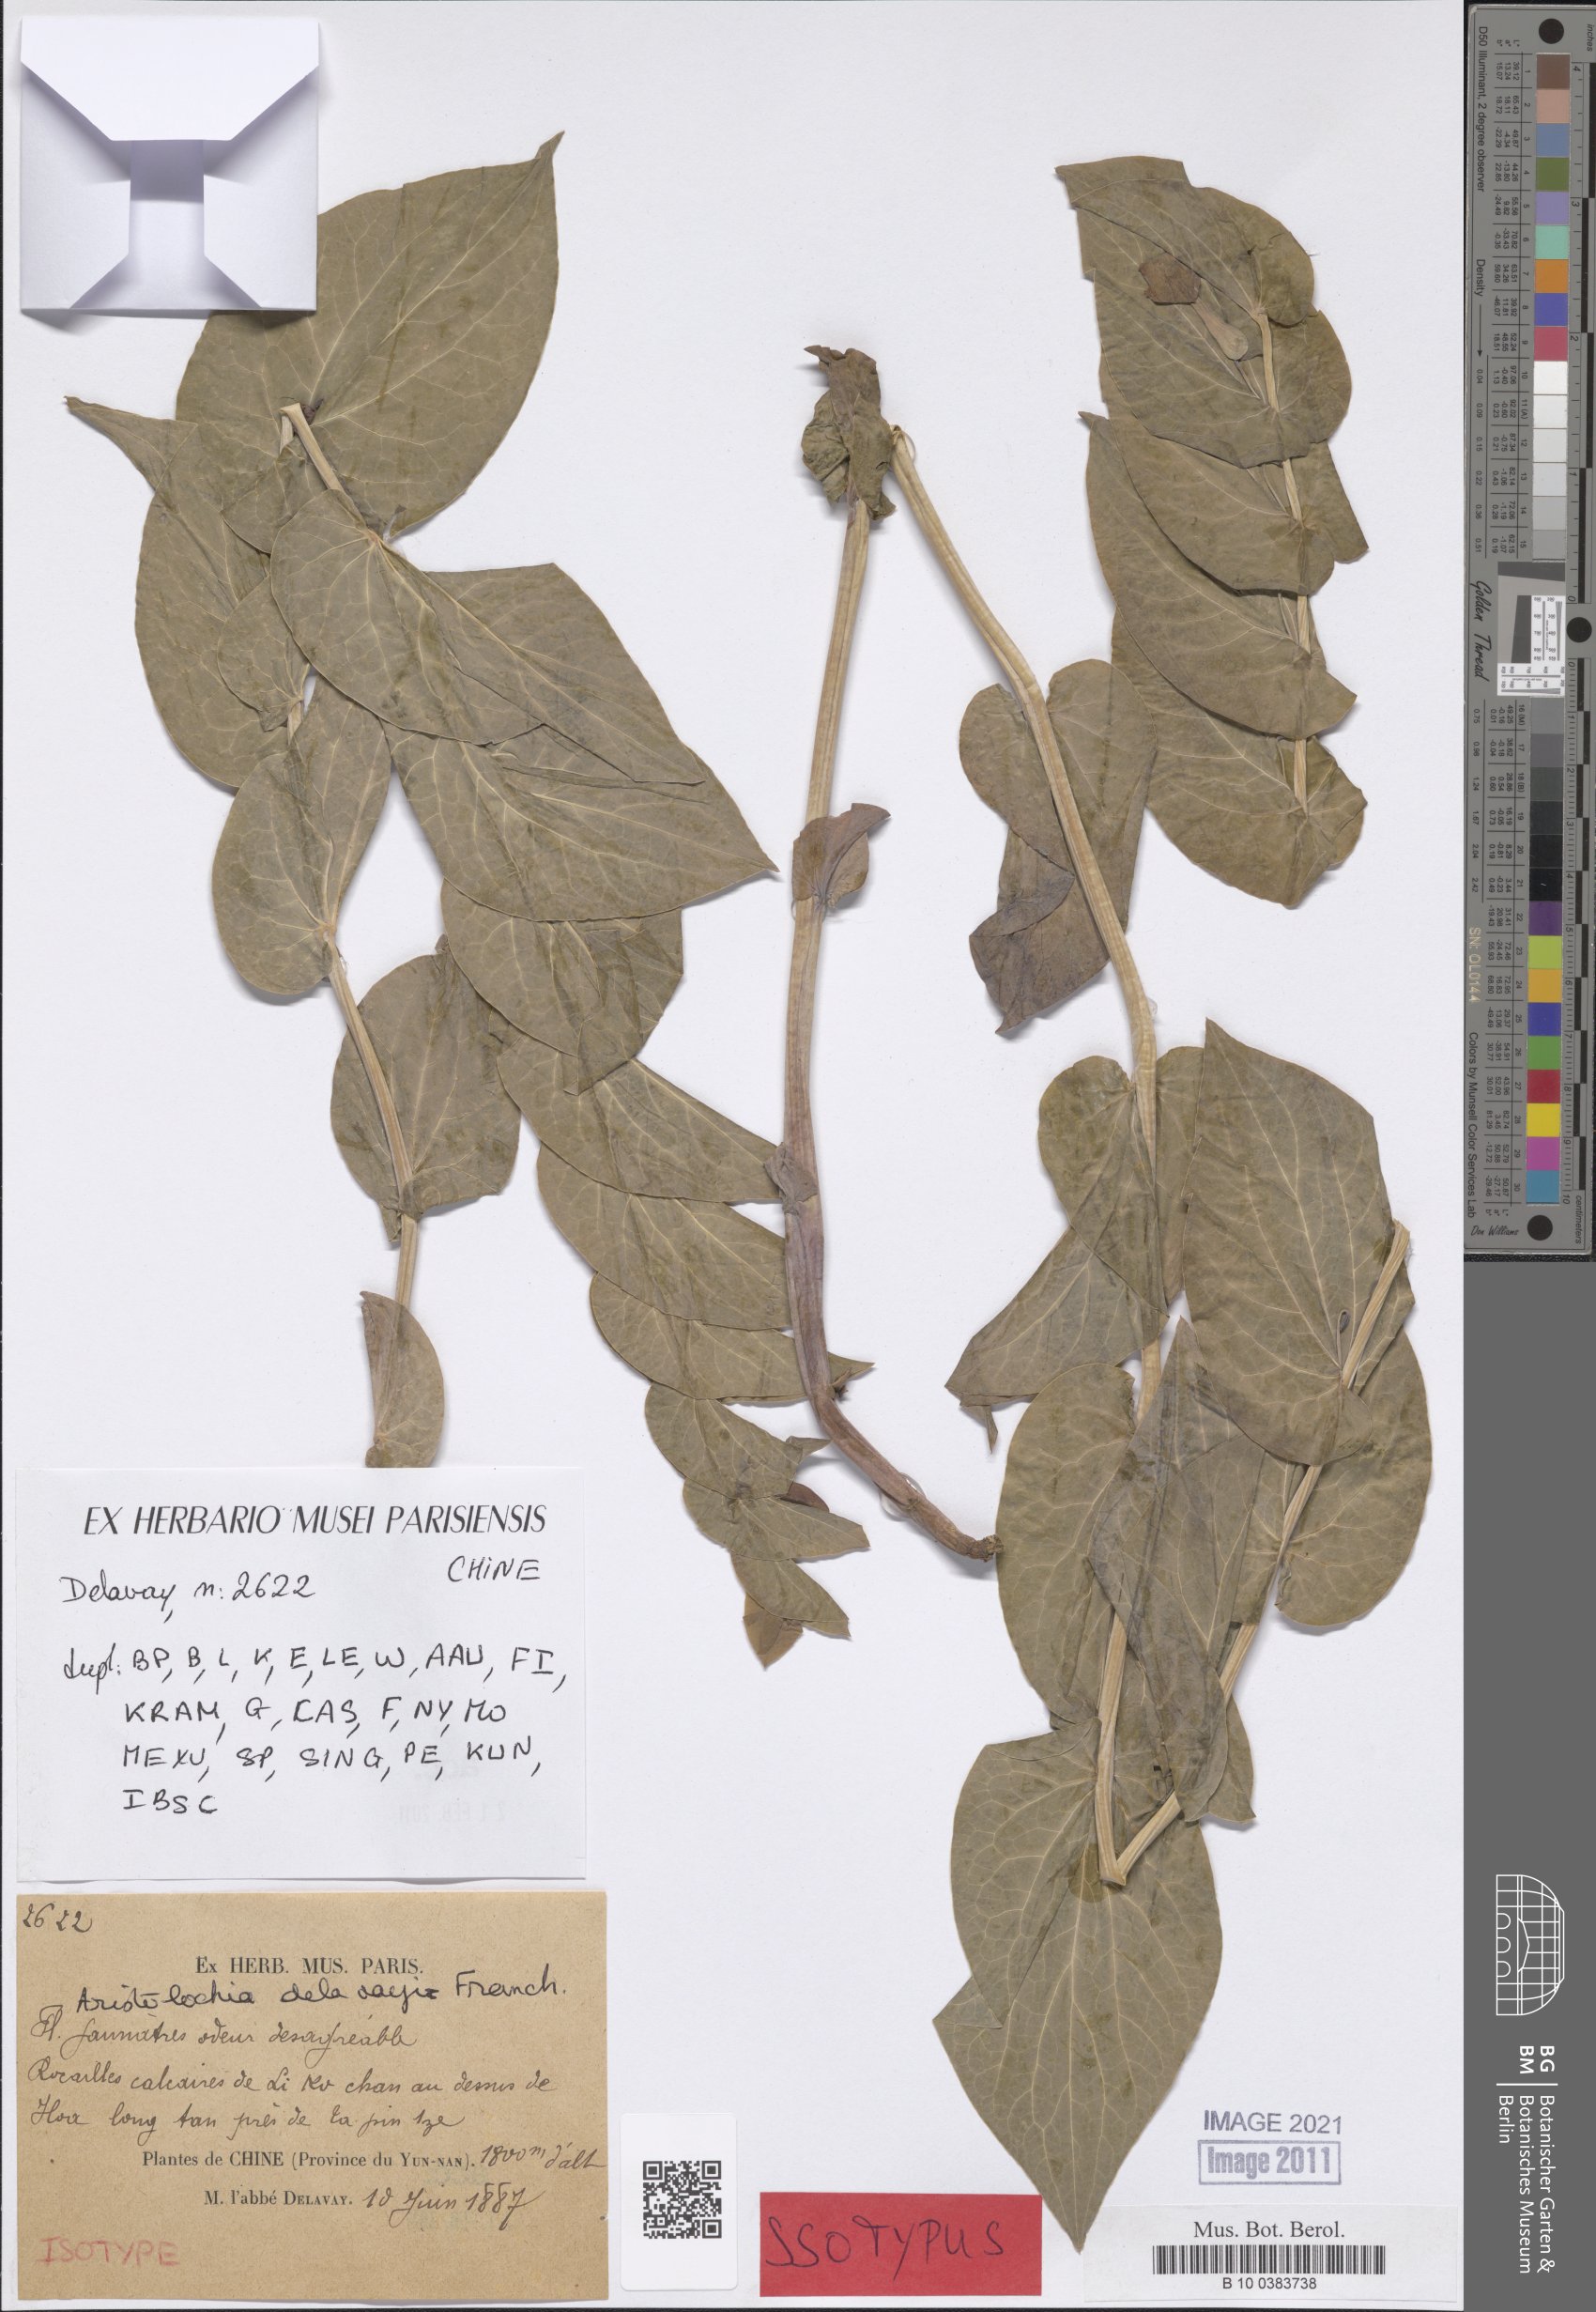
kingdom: Plantae
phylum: Tracheophyta
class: Magnoliopsida
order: Piperales
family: Aristolochiaceae
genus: Aristolochia
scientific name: Aristolochia delavayi
